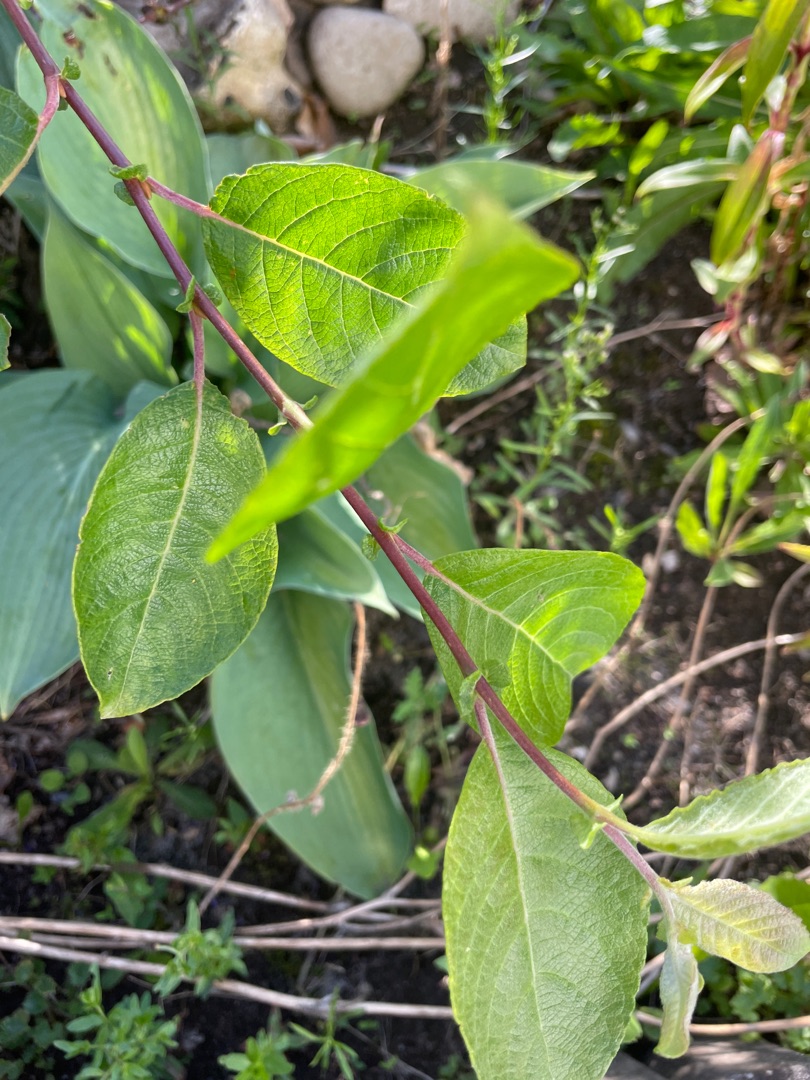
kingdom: Plantae
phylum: Tracheophyta
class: Magnoliopsida
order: Malpighiales
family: Salicaceae
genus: Salix
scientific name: Salix caprea
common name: Selje-pil
